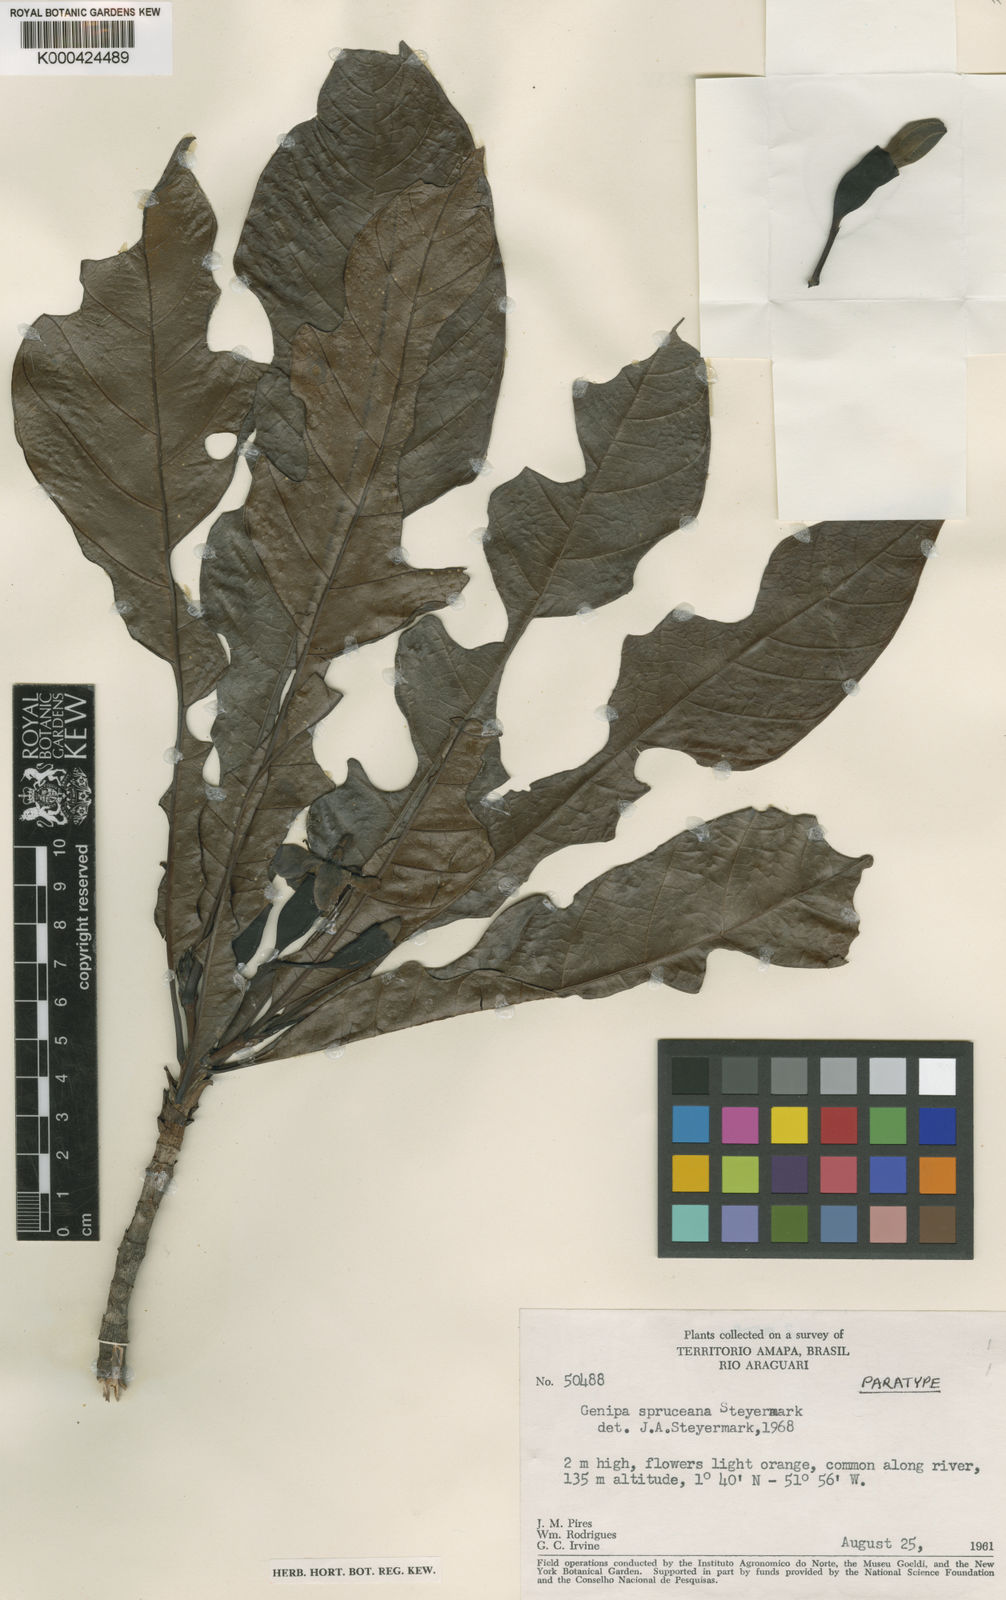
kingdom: Plantae
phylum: Tracheophyta
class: Magnoliopsida
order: Gentianales
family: Rubiaceae
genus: Genipa
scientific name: Genipa americana
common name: Genipap
